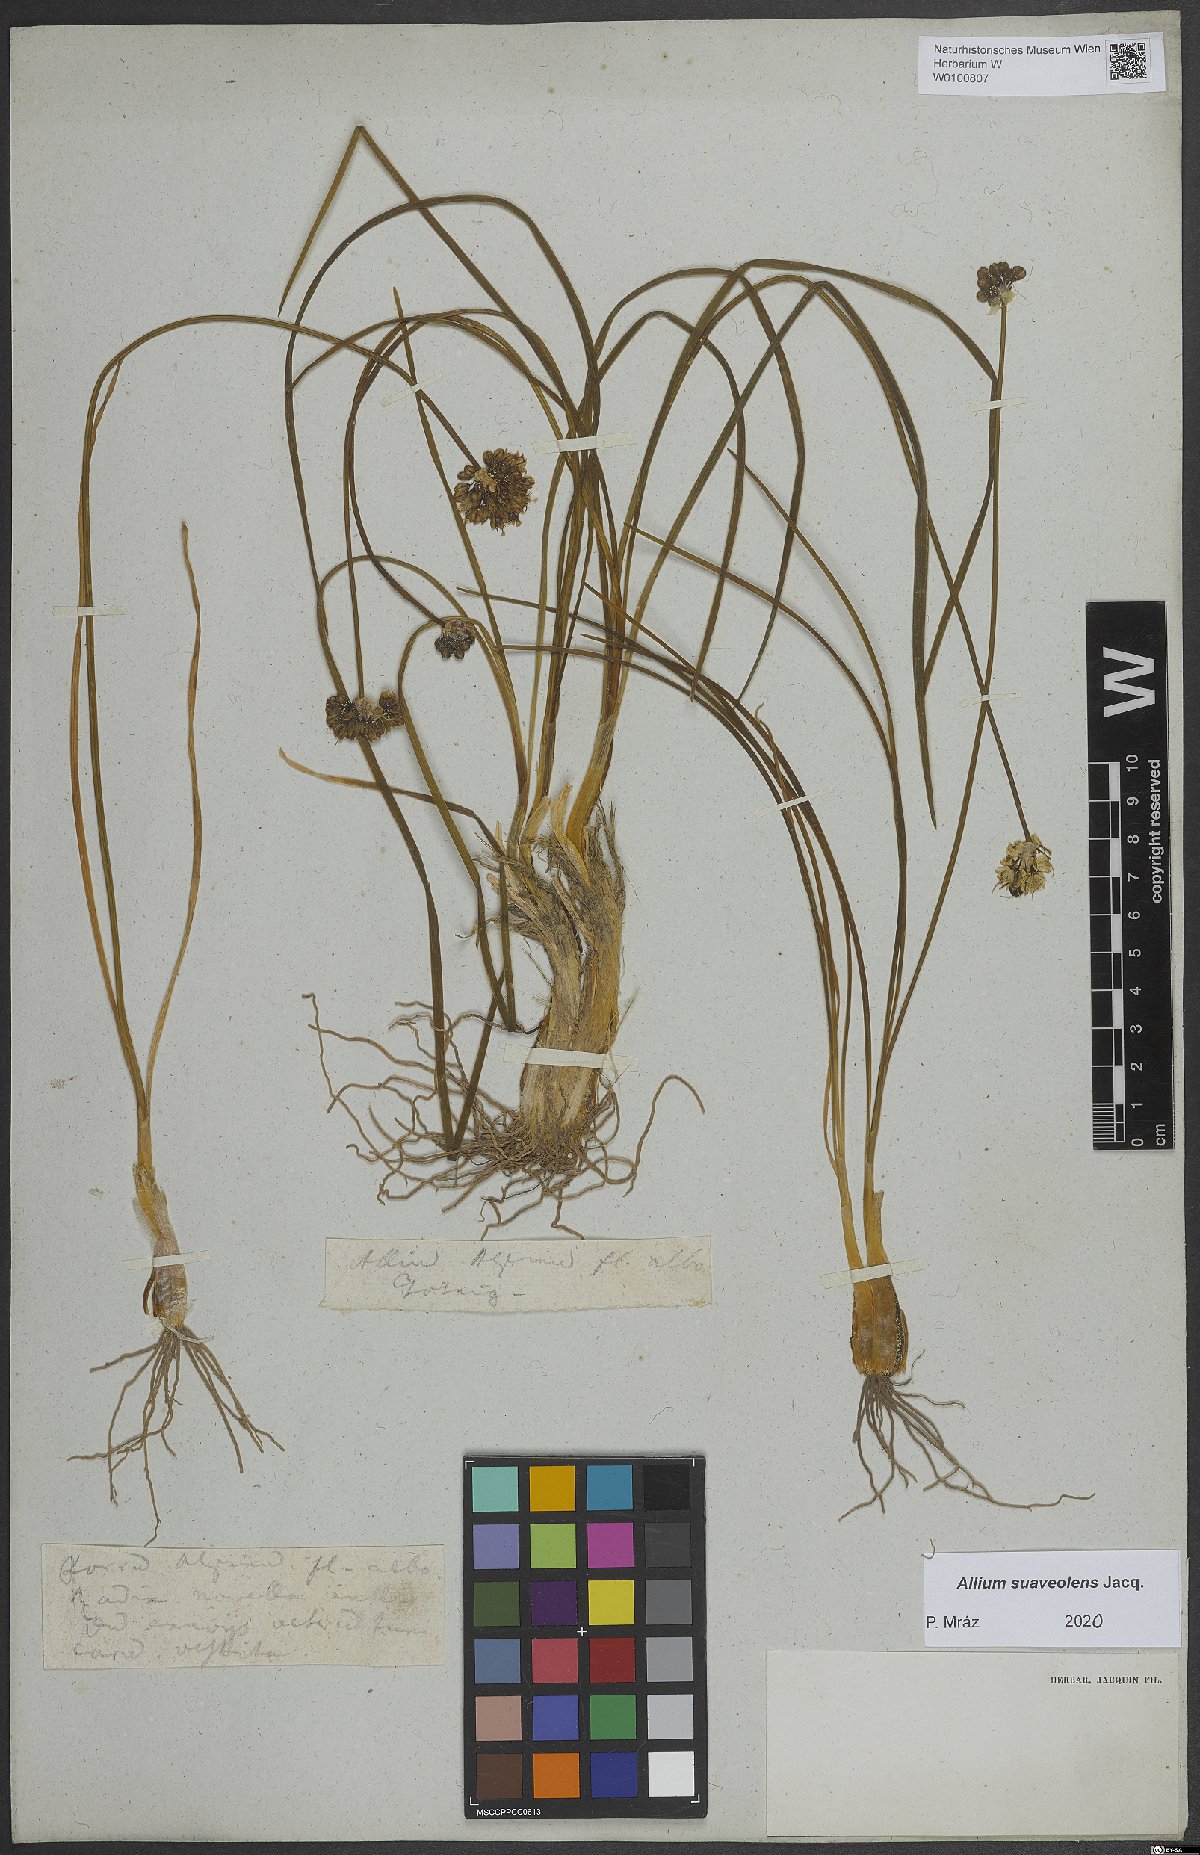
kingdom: Plantae
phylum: Tracheophyta
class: Liliopsida
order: Asparagales
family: Amaryllidaceae
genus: Allium
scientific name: Allium suaveolens
